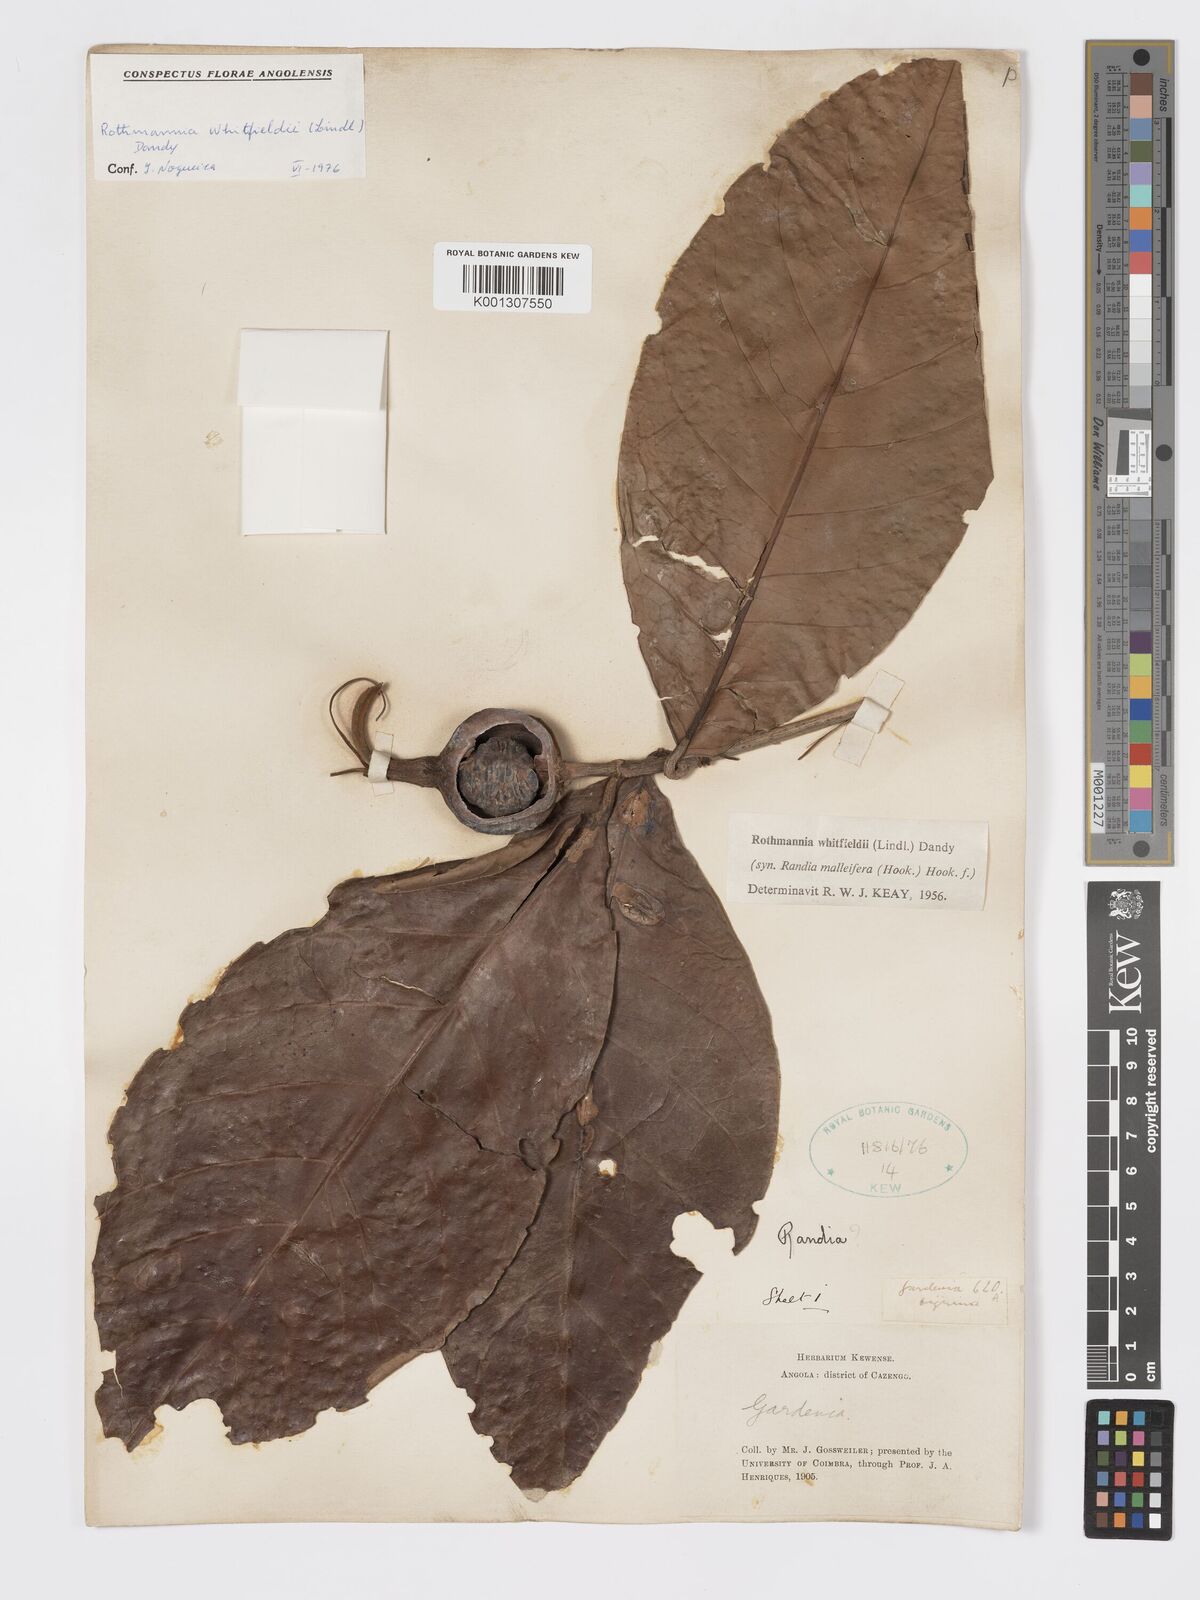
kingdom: Plantae
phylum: Tracheophyta
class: Magnoliopsida
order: Gentianales
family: Rubiaceae
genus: Rothmannia
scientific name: Rothmannia whitfieldii
